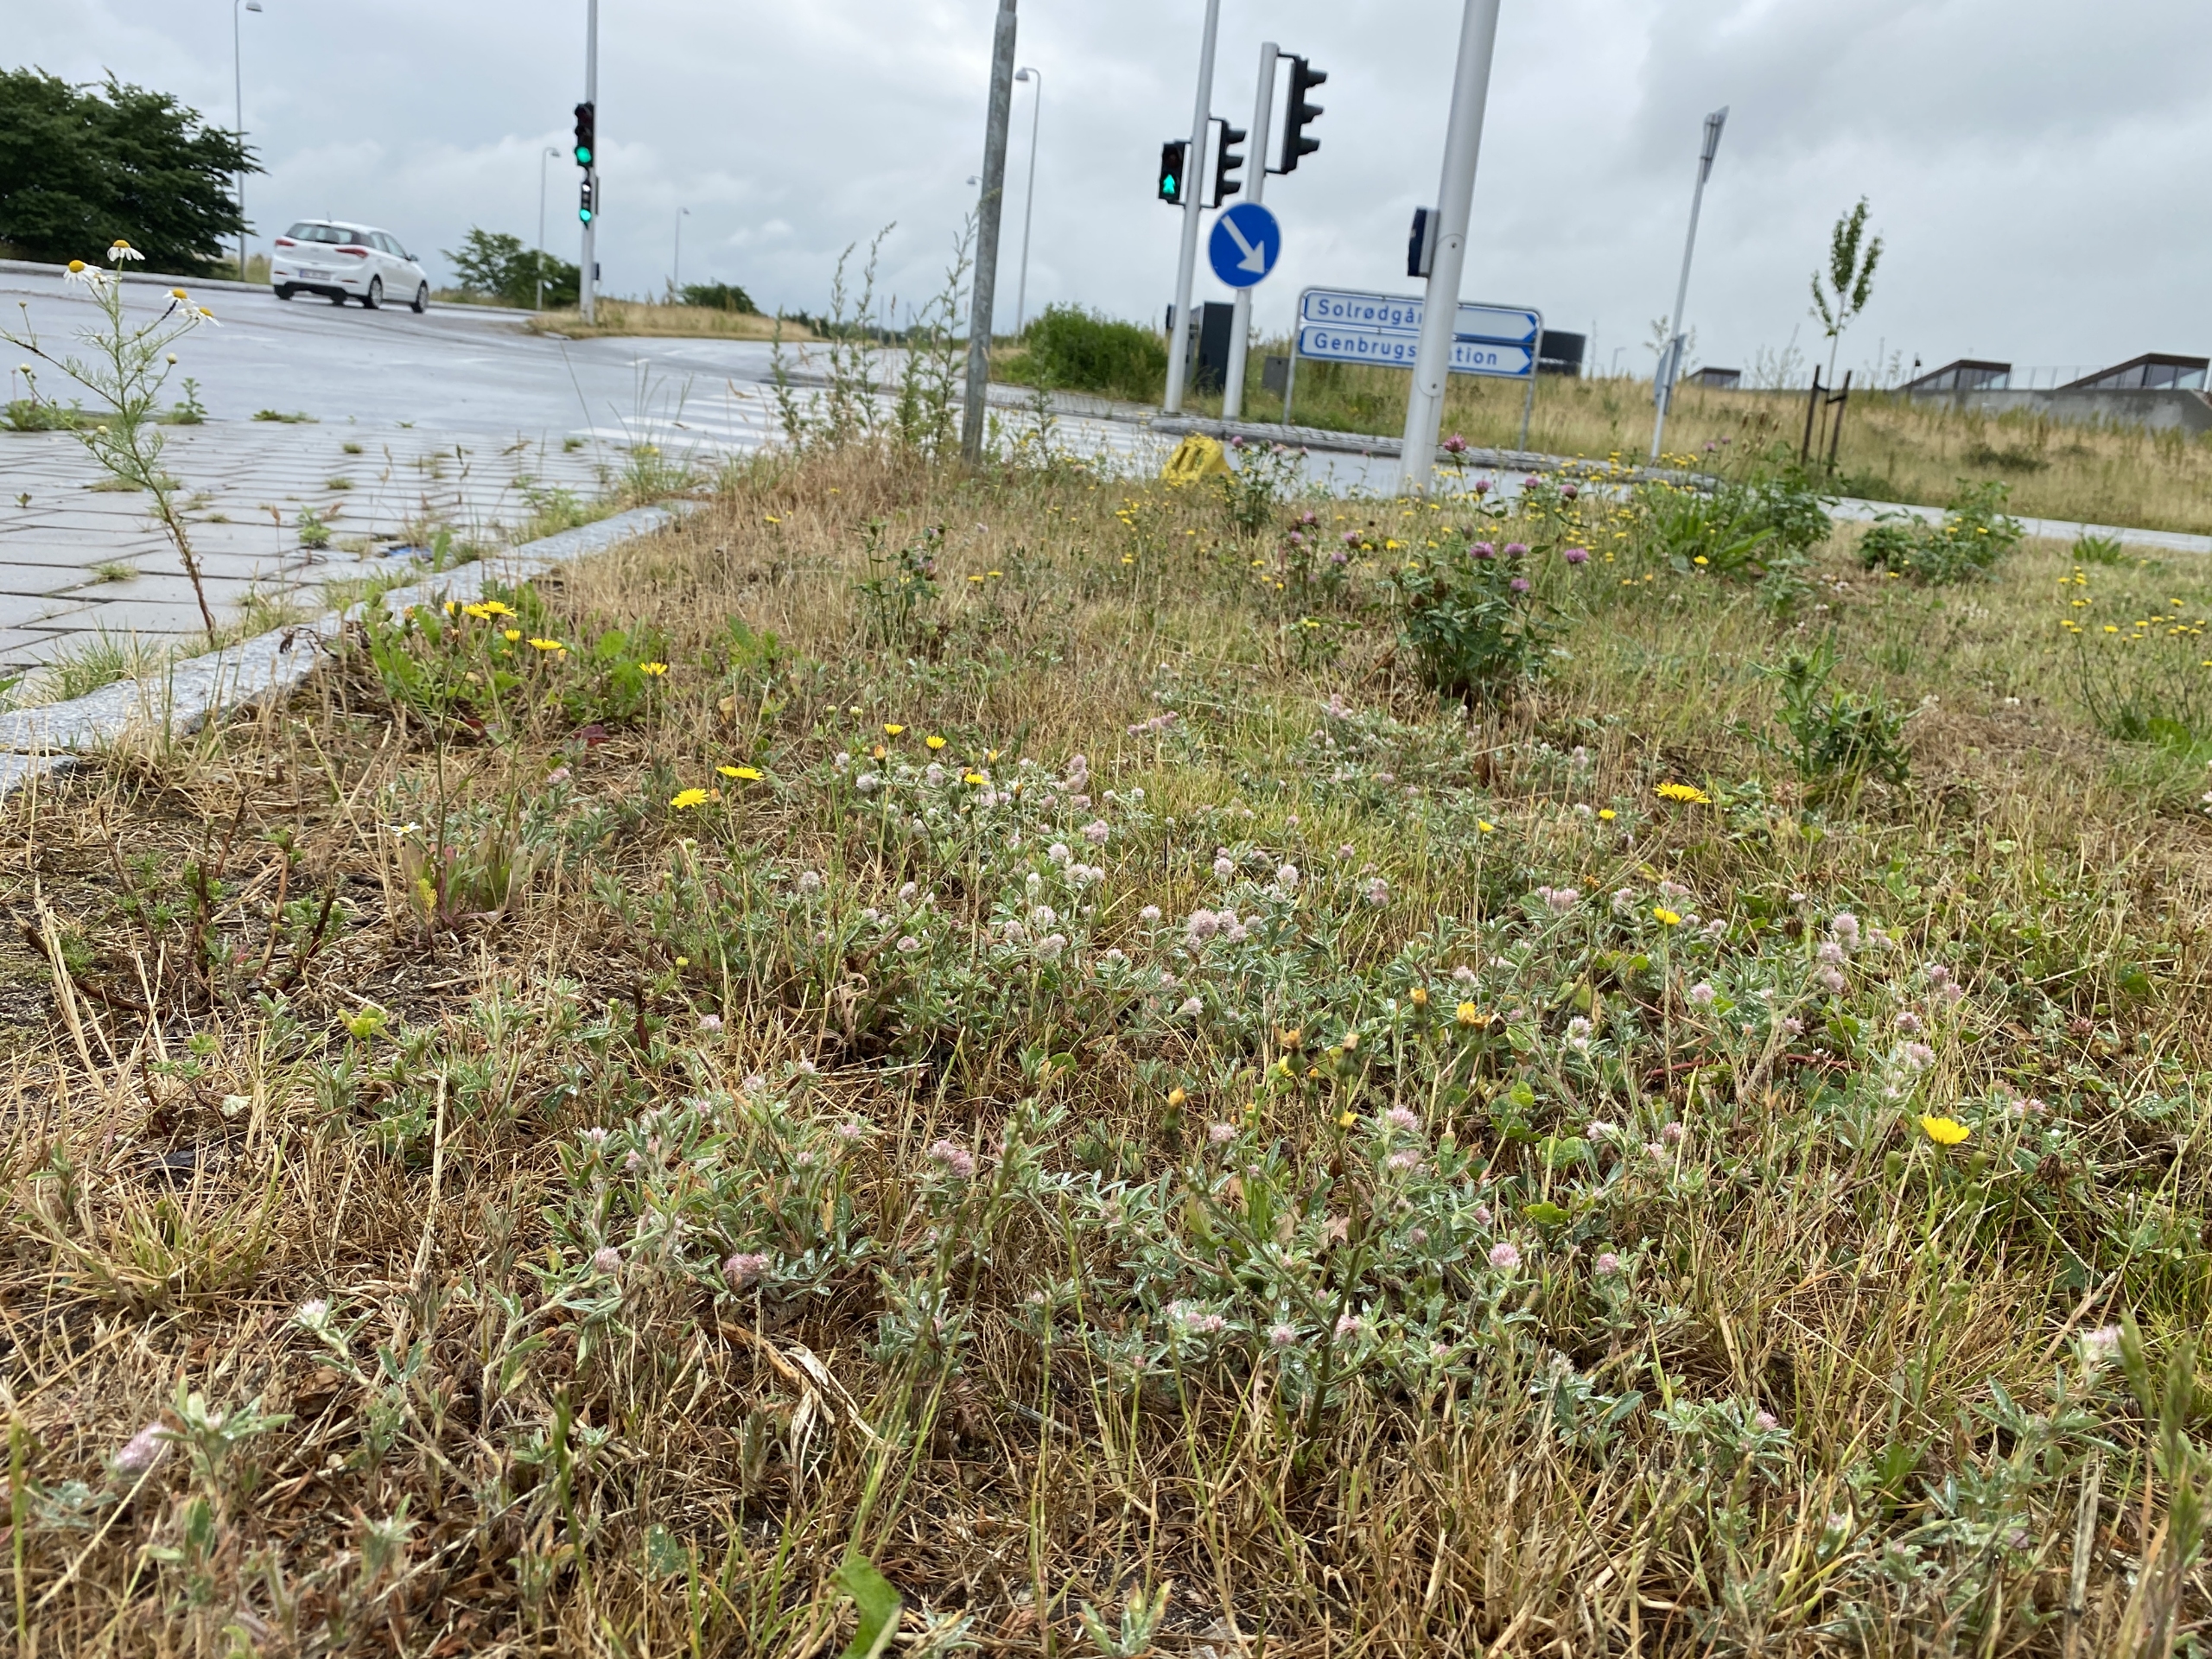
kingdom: Plantae
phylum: Tracheophyta
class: Magnoliopsida
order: Fabales
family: Fabaceae
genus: Trifolium
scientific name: Trifolium arvense
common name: Hare-kløver
